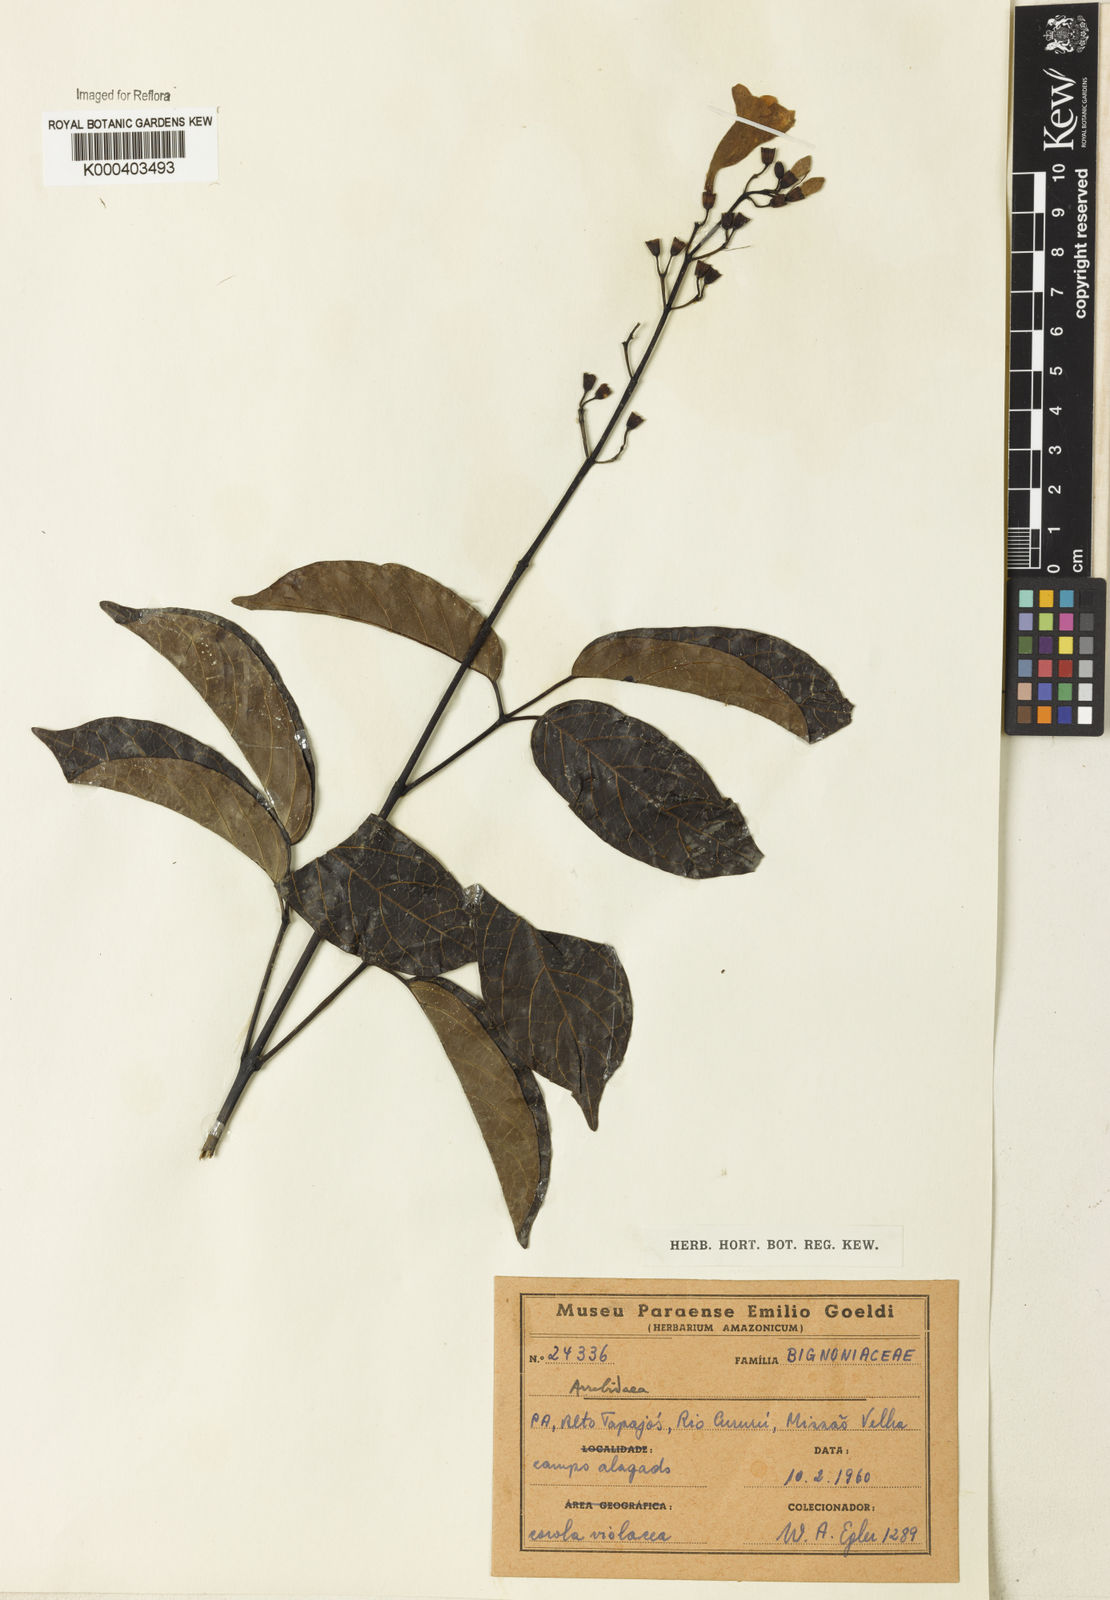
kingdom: Plantae
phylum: Tracheophyta
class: Magnoliopsida
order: Rosales
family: Rhamnaceae
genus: Arrabidaea
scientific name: Arrabidaea
